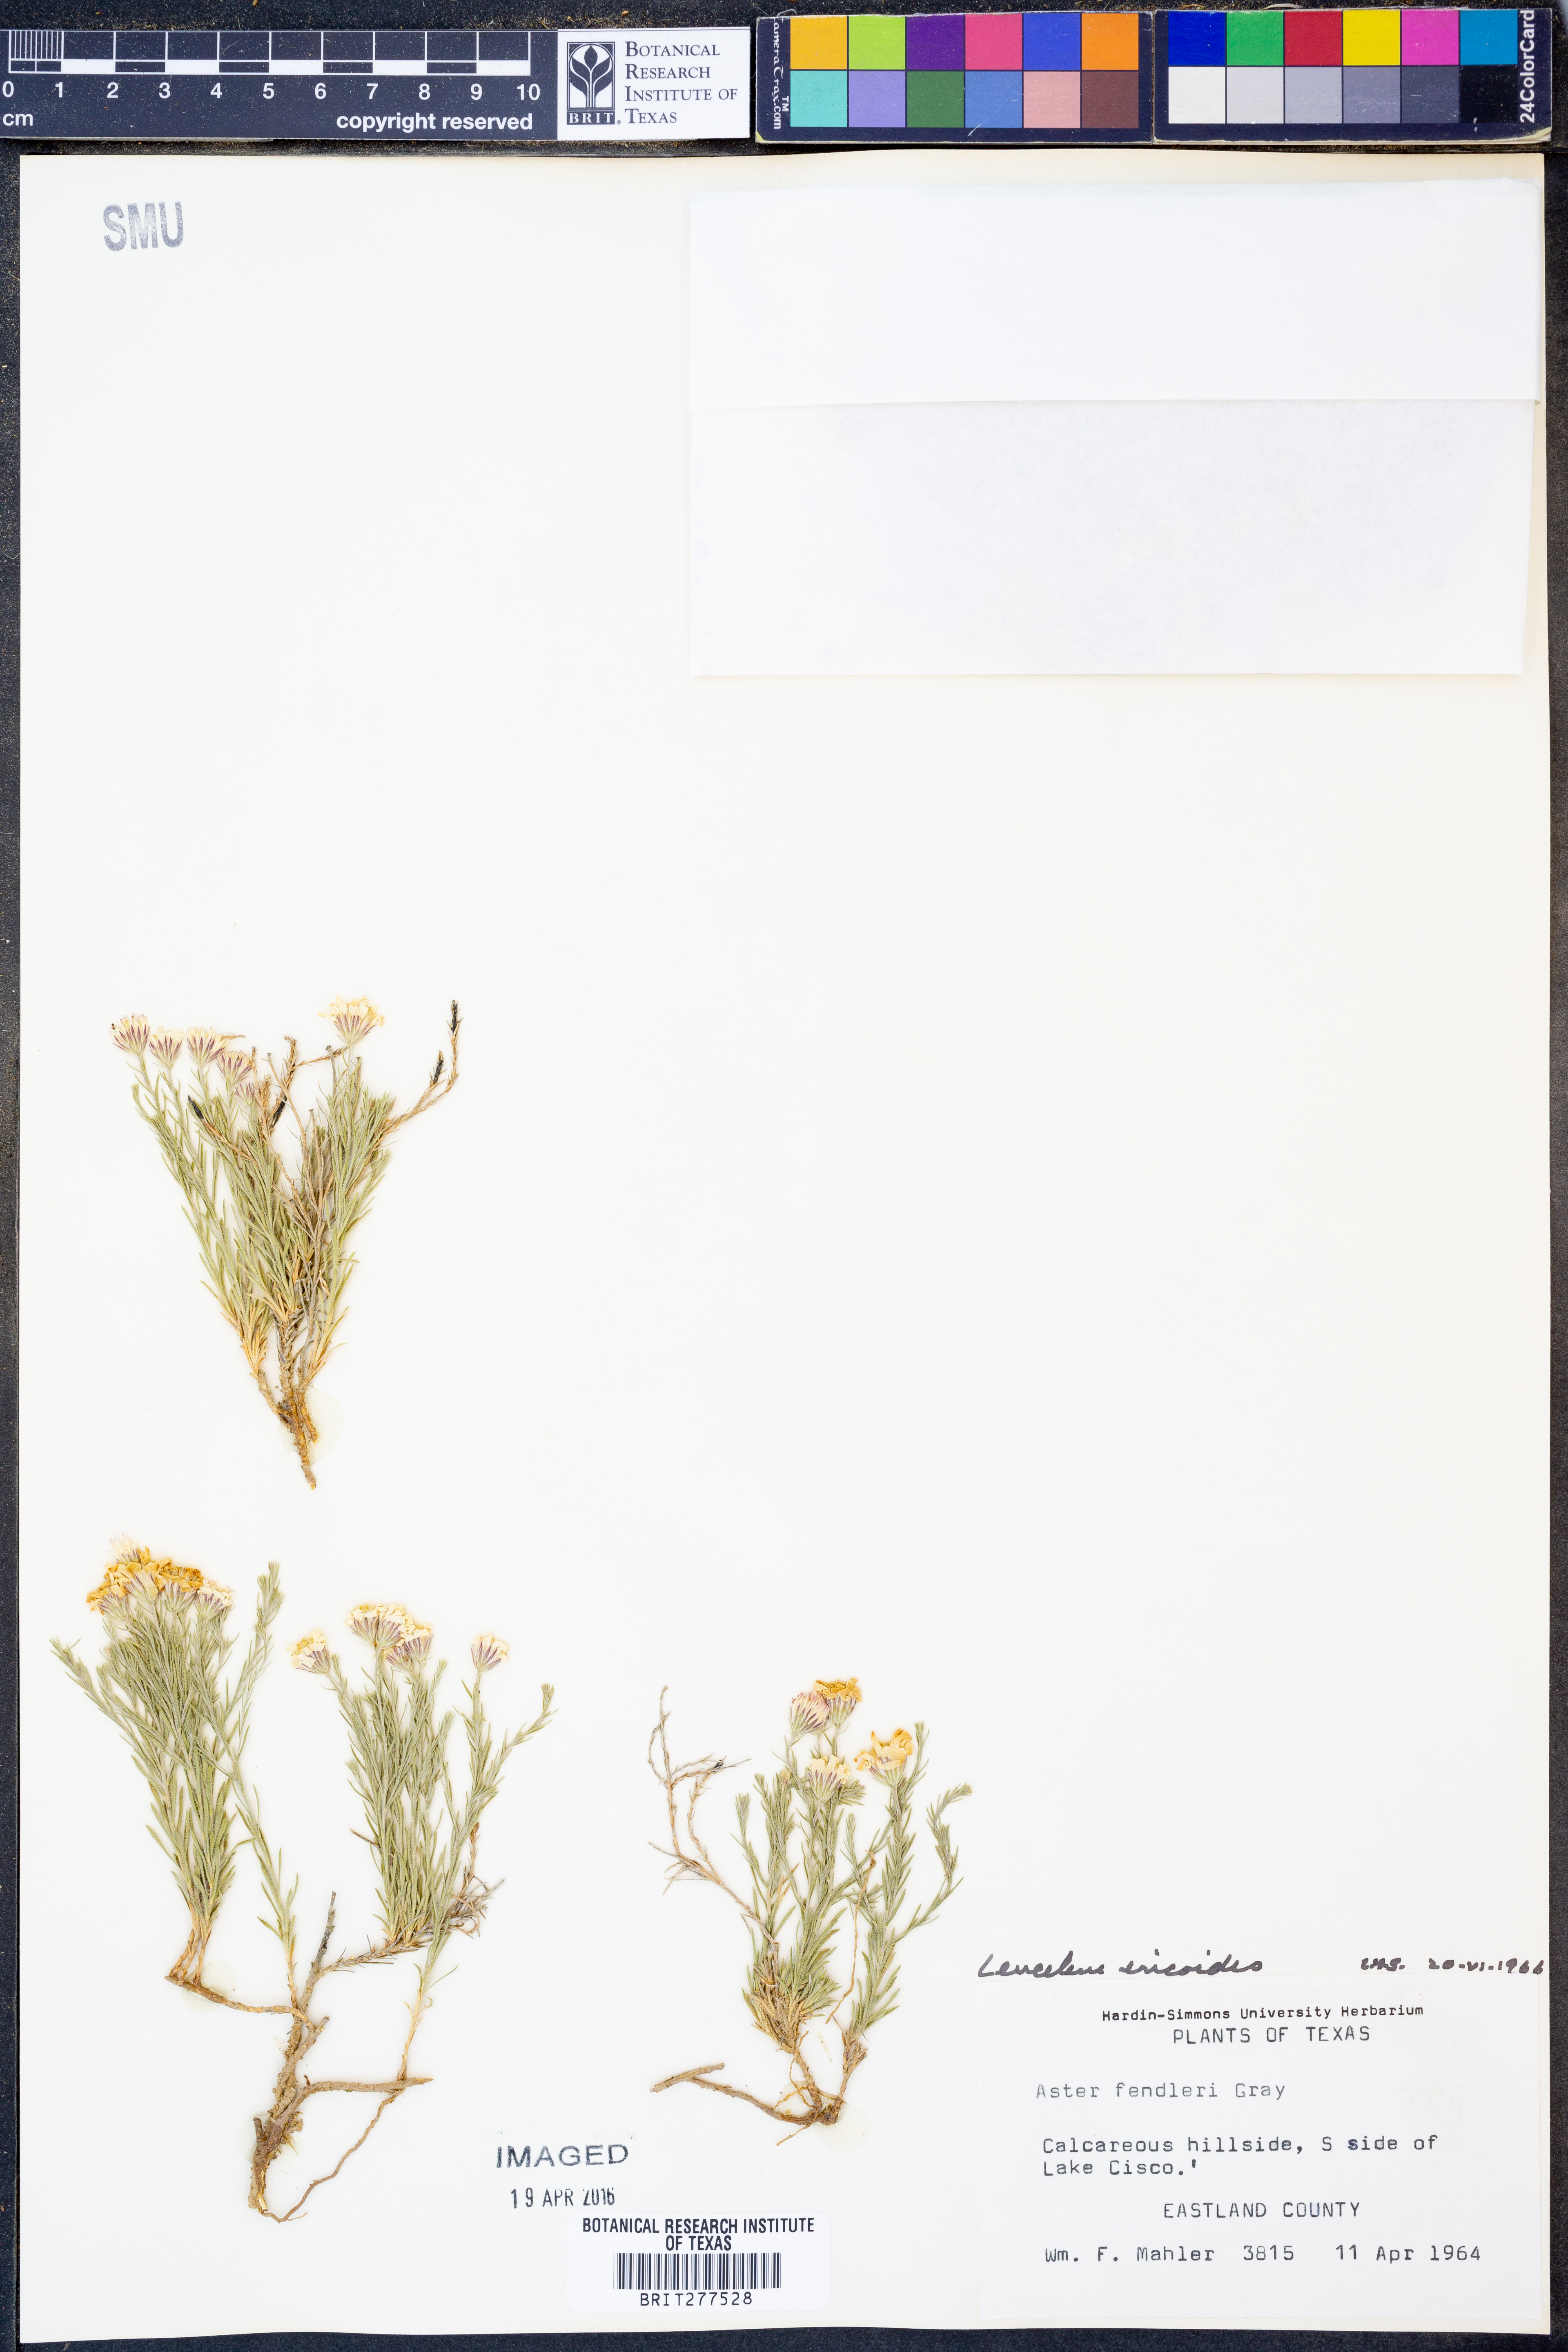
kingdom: Plantae
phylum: Tracheophyta
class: Magnoliopsida
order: Asterales
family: Asteraceae
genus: Chaetopappa
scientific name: Chaetopappa ericoides
